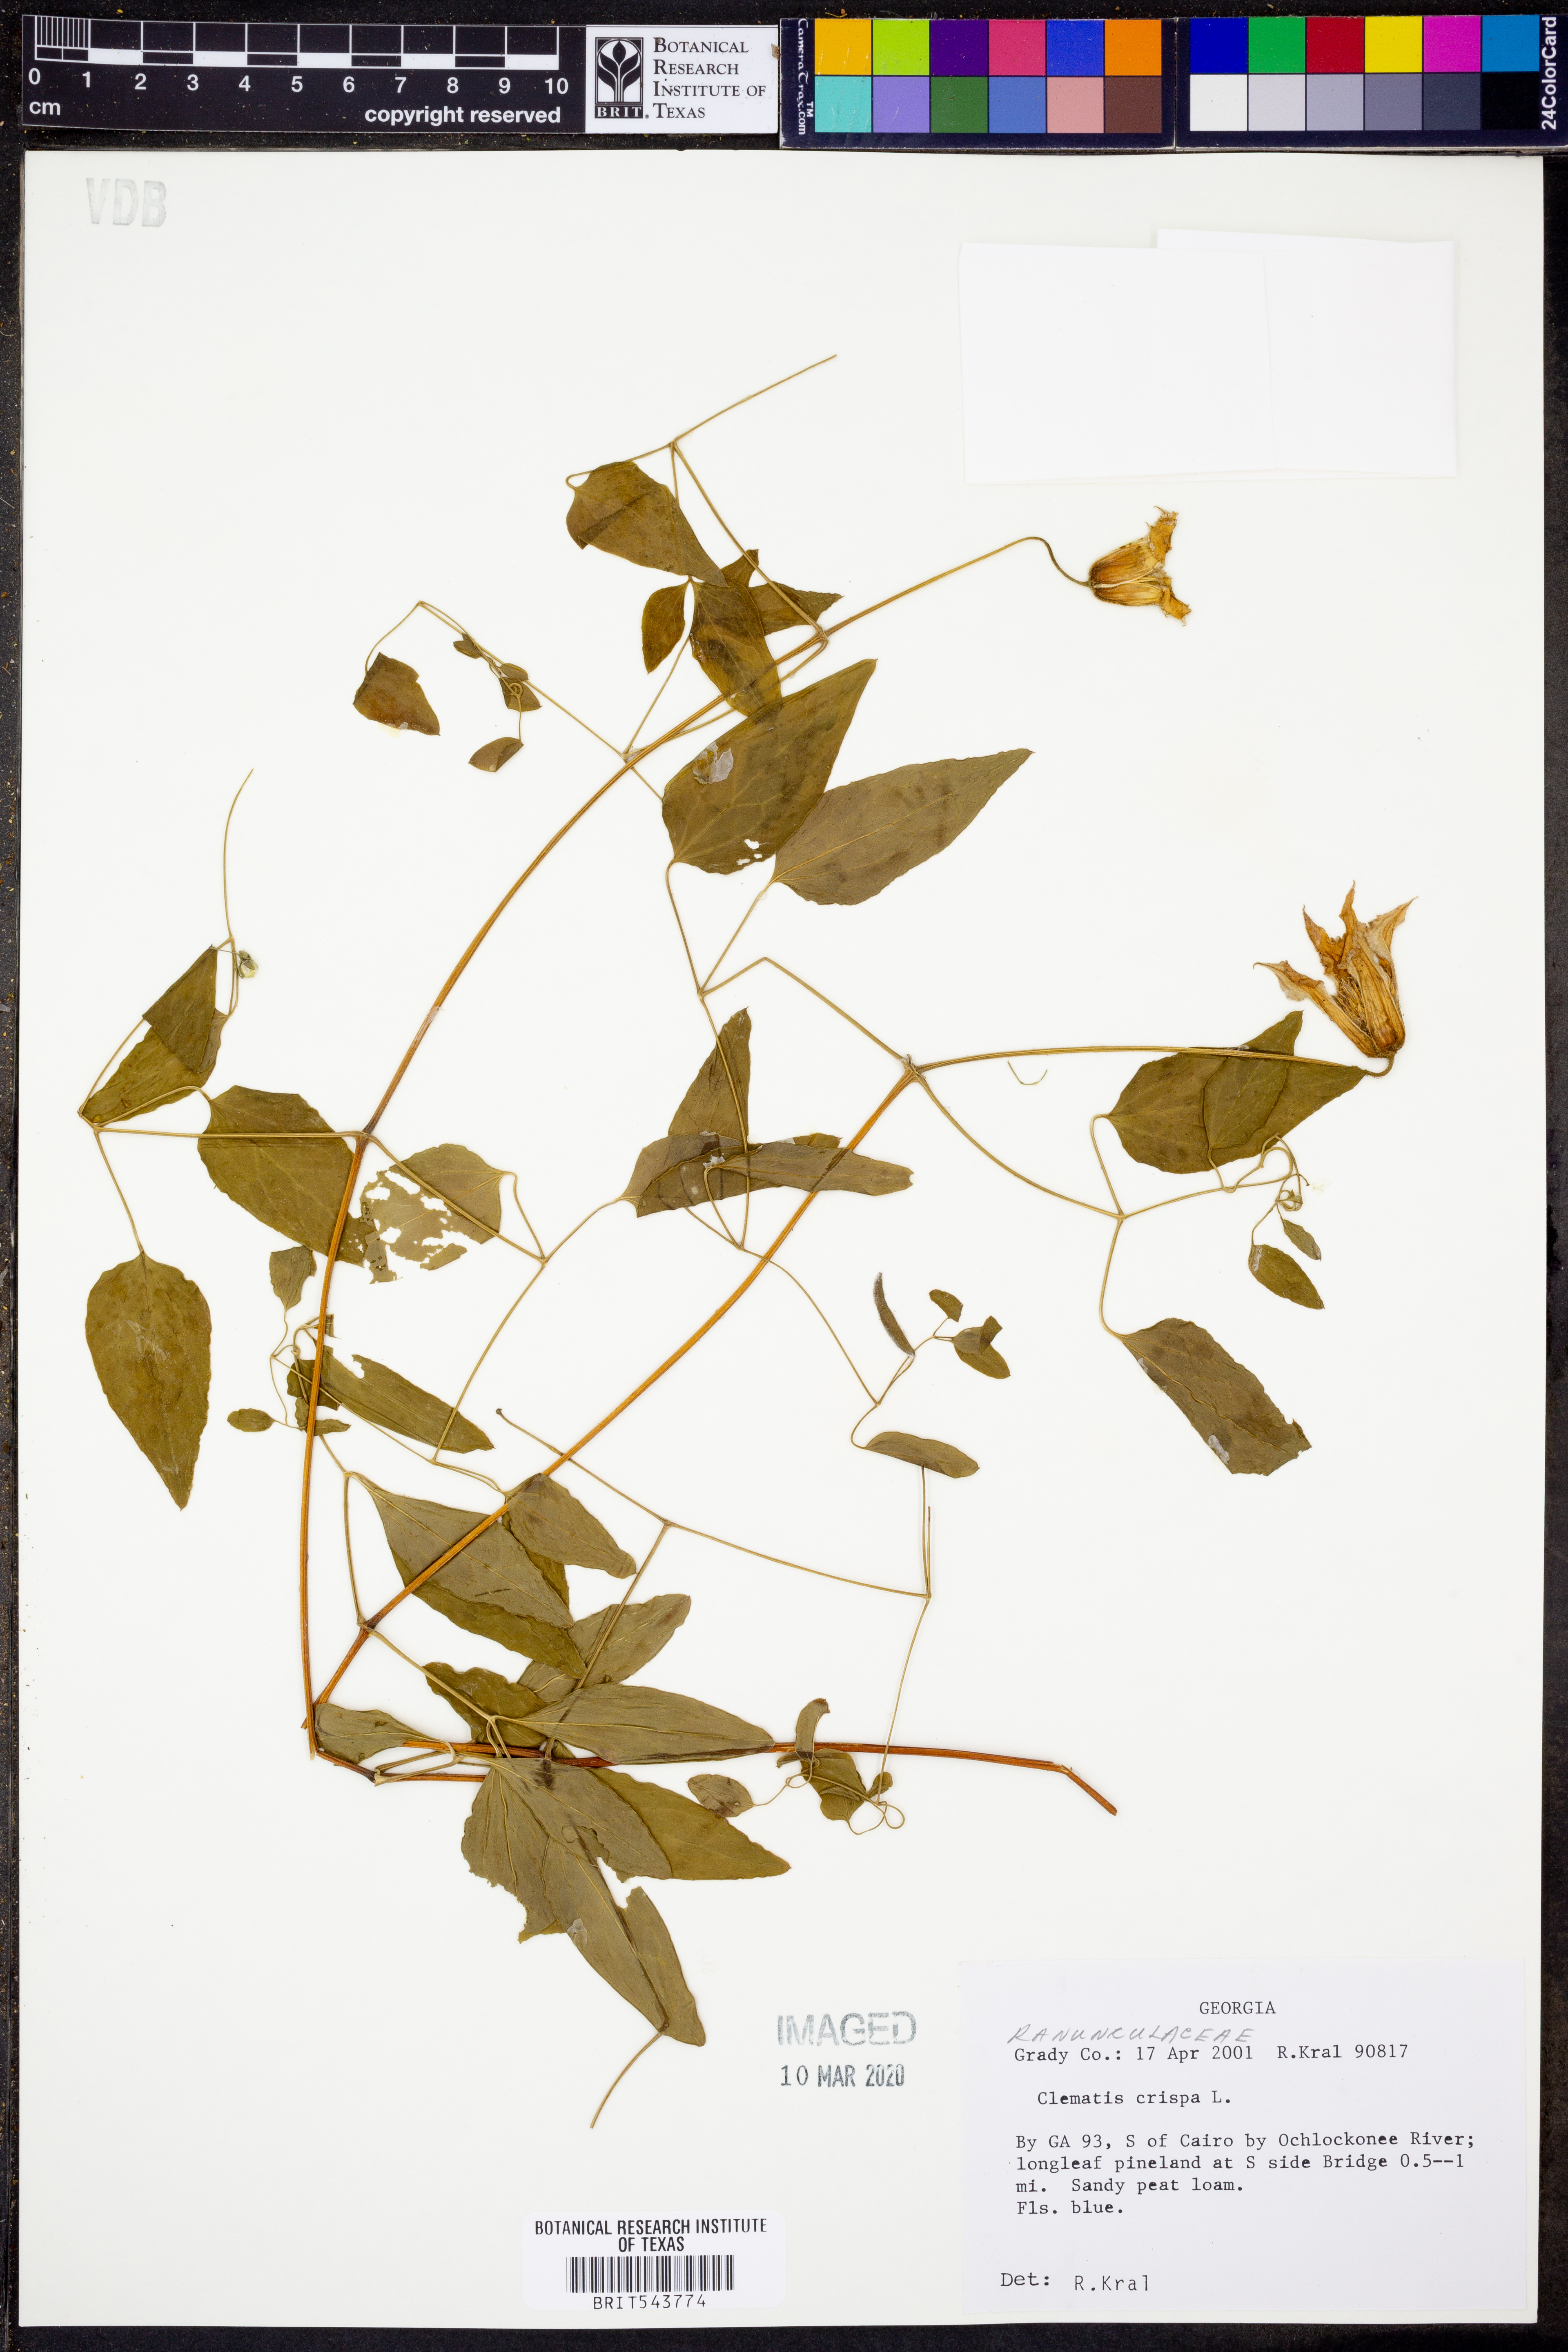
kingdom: Plantae
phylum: Tracheophyta
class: Magnoliopsida
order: Ranunculales
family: Ranunculaceae
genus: Clematis
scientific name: Clematis crispa
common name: Curly clematis
